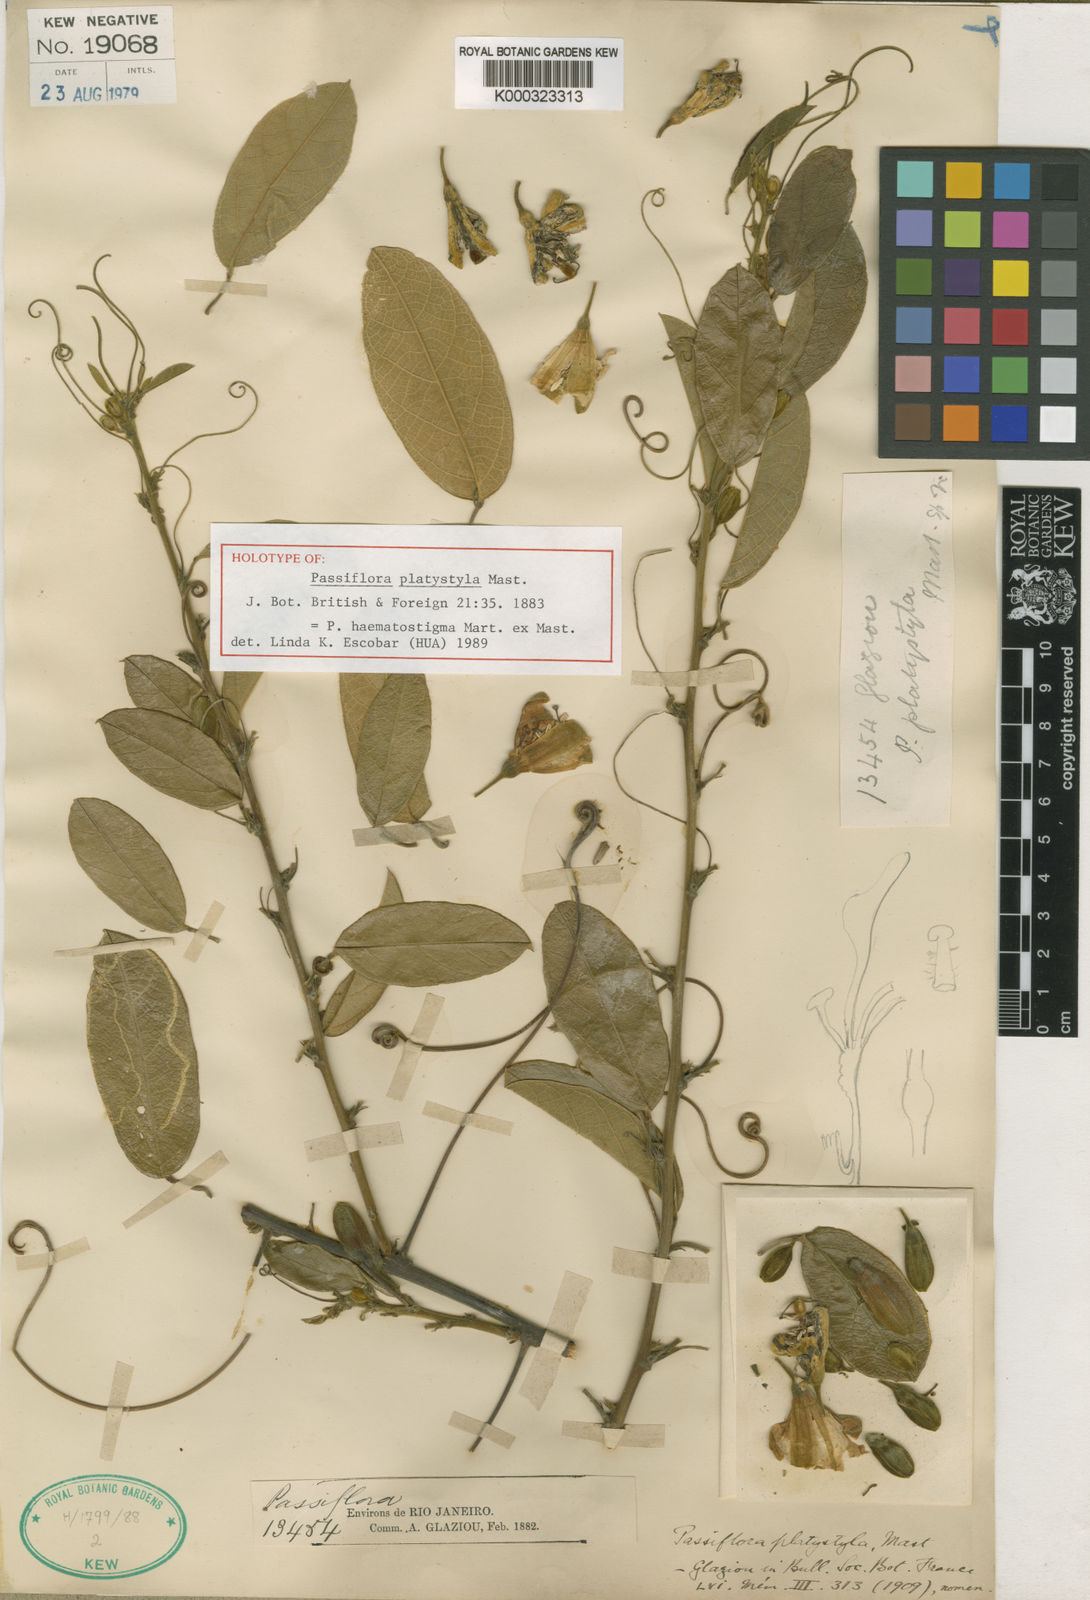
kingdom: Plantae
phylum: Tracheophyta
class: Magnoliopsida
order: Malpighiales
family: Passifloraceae
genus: Passiflora
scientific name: Passiflora haematostigma
